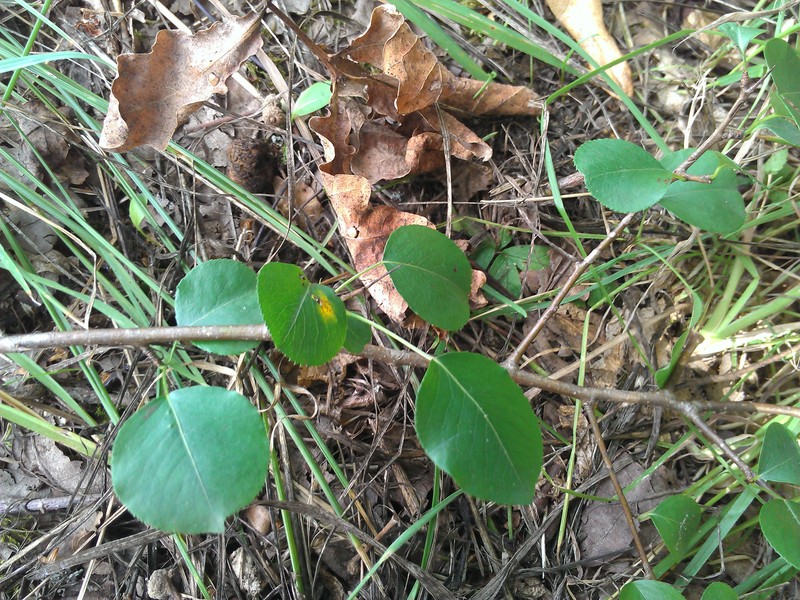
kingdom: Plantae
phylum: Tracheophyta
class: Magnoliopsida
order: Rosales
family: Rosaceae
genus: Pyrus
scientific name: Pyrus pyraster
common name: Wild pear
